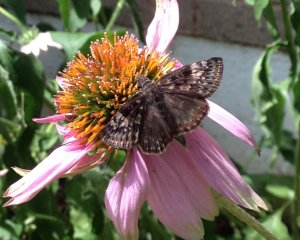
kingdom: Animalia
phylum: Arthropoda
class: Insecta
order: Lepidoptera
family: Hesperiidae
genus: Gesta
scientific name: Gesta
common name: Wild Indigo Duskywing
